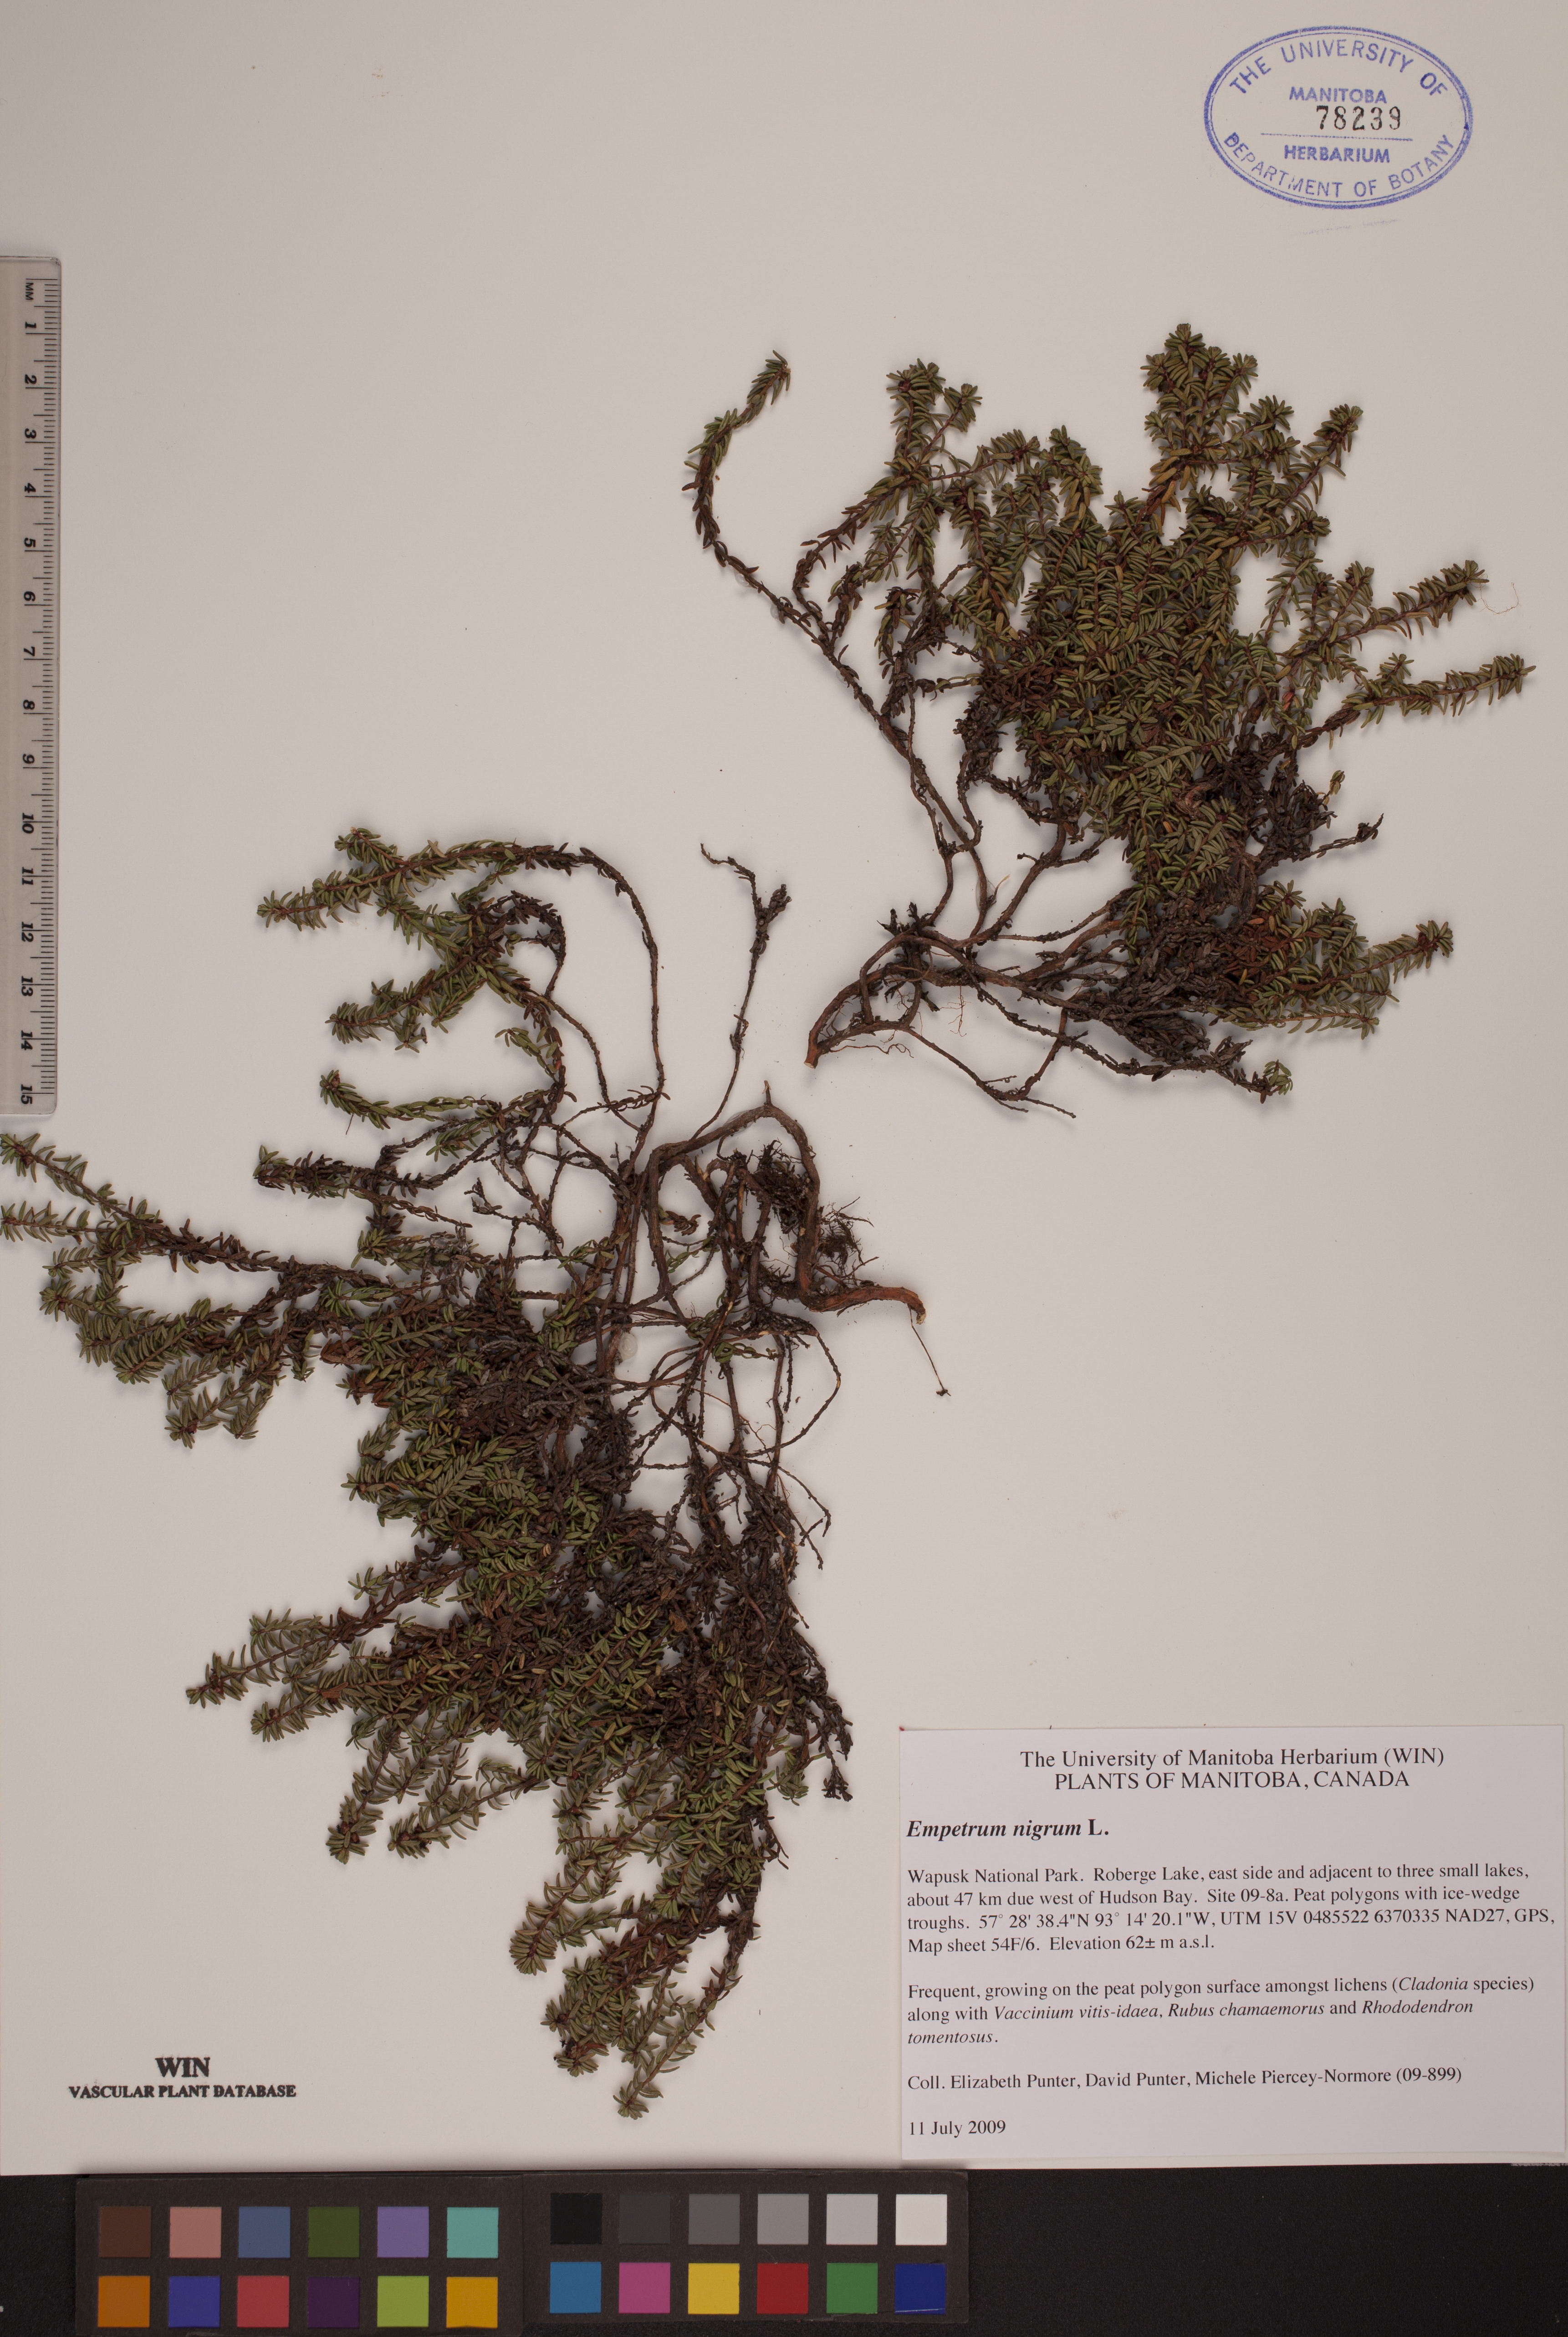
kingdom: Plantae
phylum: Tracheophyta
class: Magnoliopsida
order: Ericales
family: Ericaceae
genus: Empetrum
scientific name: Empetrum nigrum
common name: Black crowberry
